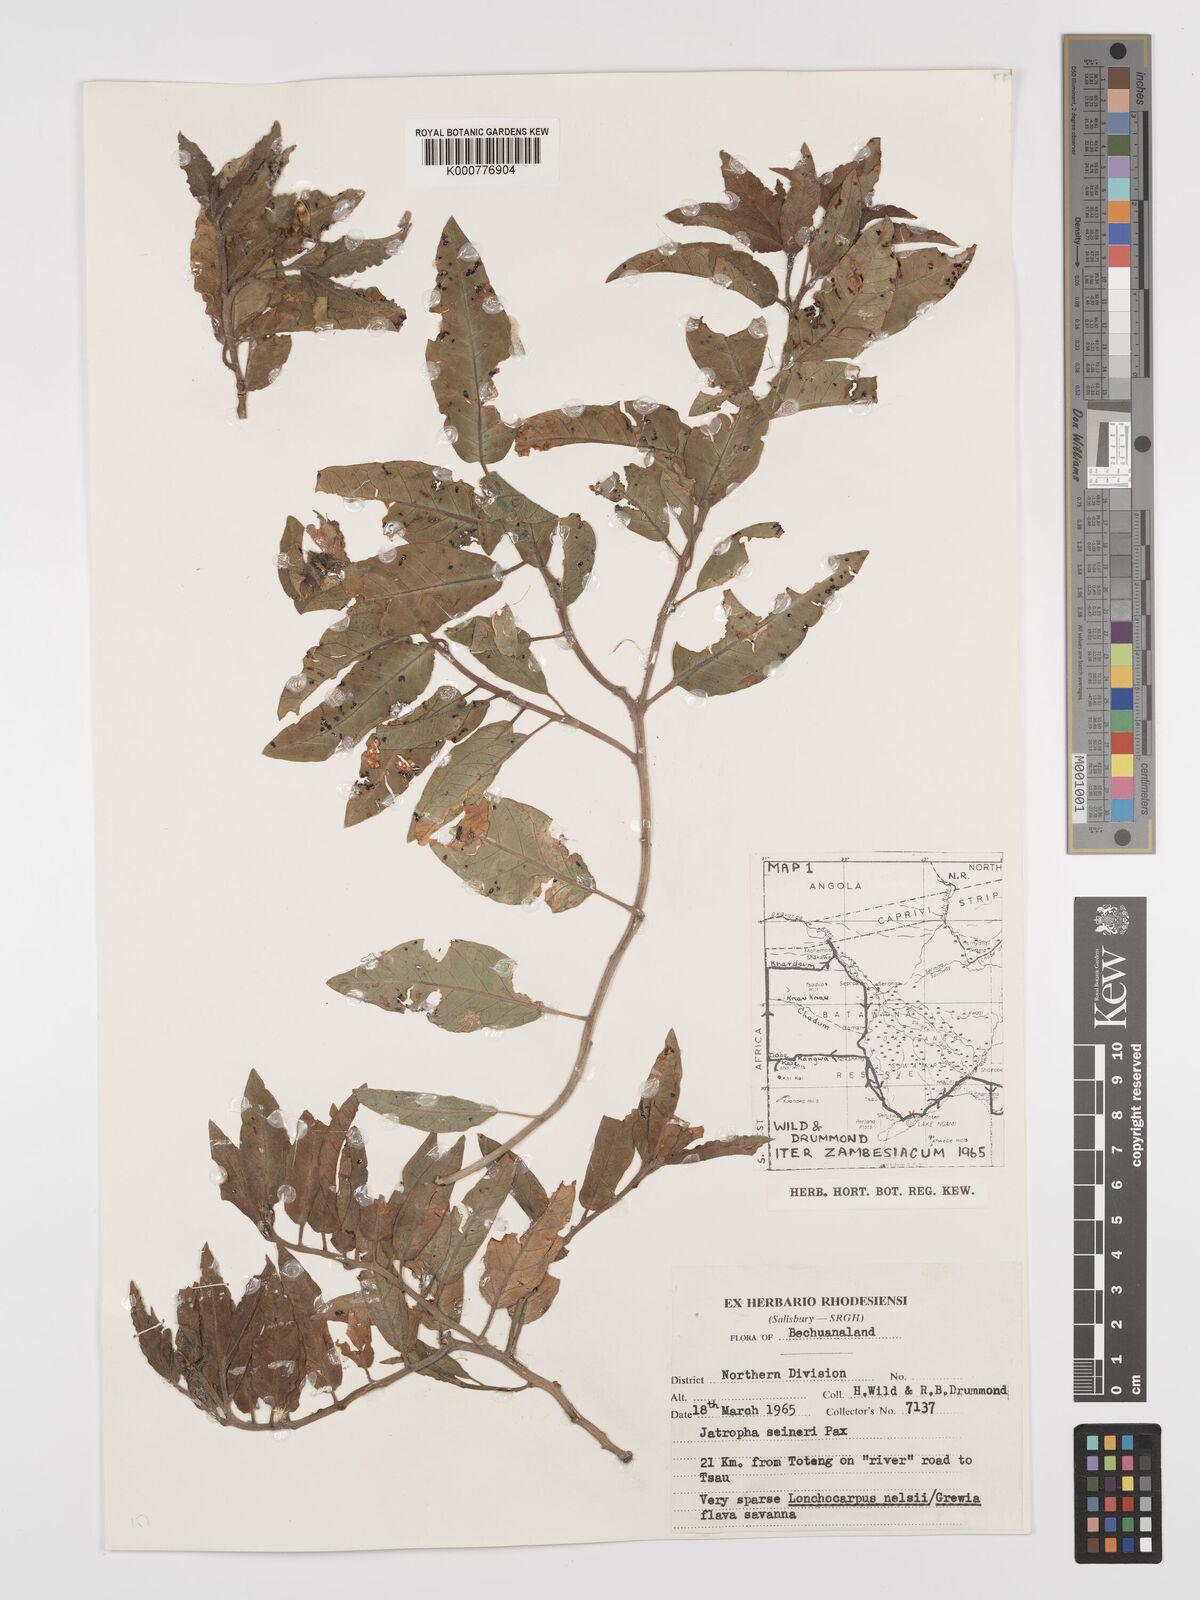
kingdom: Plantae
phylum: Tracheophyta
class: Magnoliopsida
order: Malpighiales
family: Euphorbiaceae
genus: Jatropha
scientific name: Jatropha seineri
